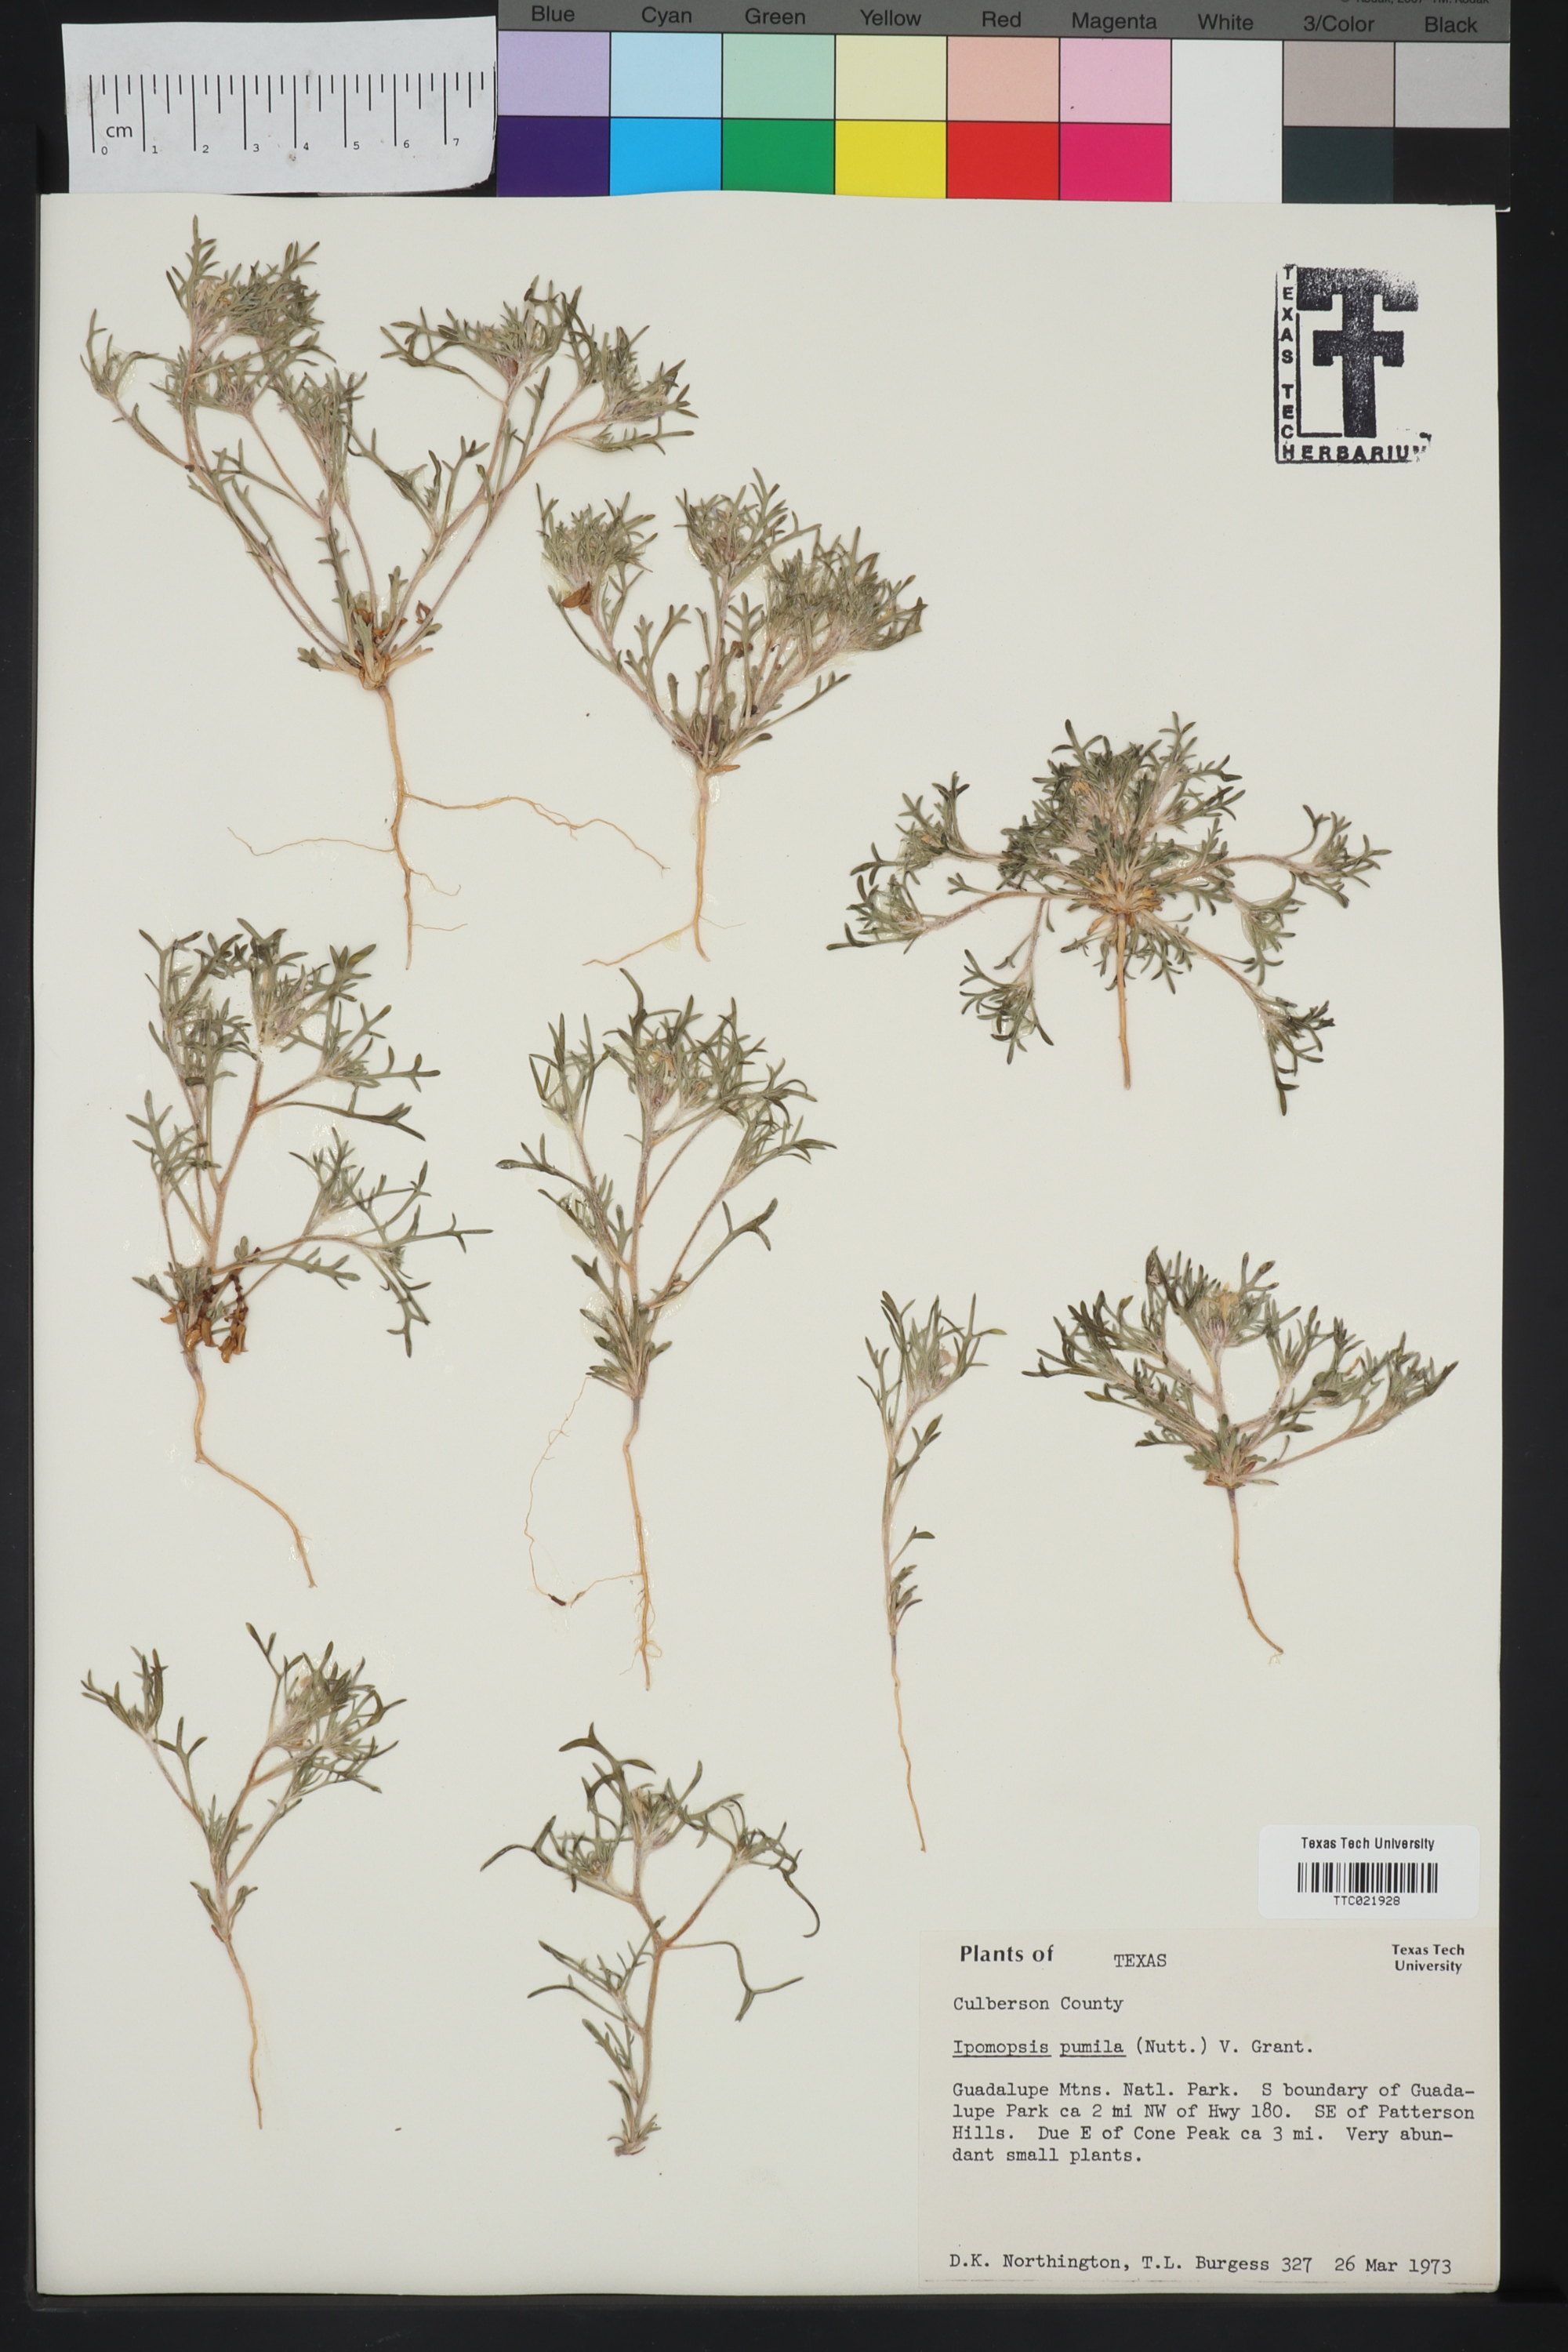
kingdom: Plantae
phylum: Tracheophyta
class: Magnoliopsida
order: Ericales
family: Polemoniaceae
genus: Ipomopsis
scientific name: Ipomopsis pumila
